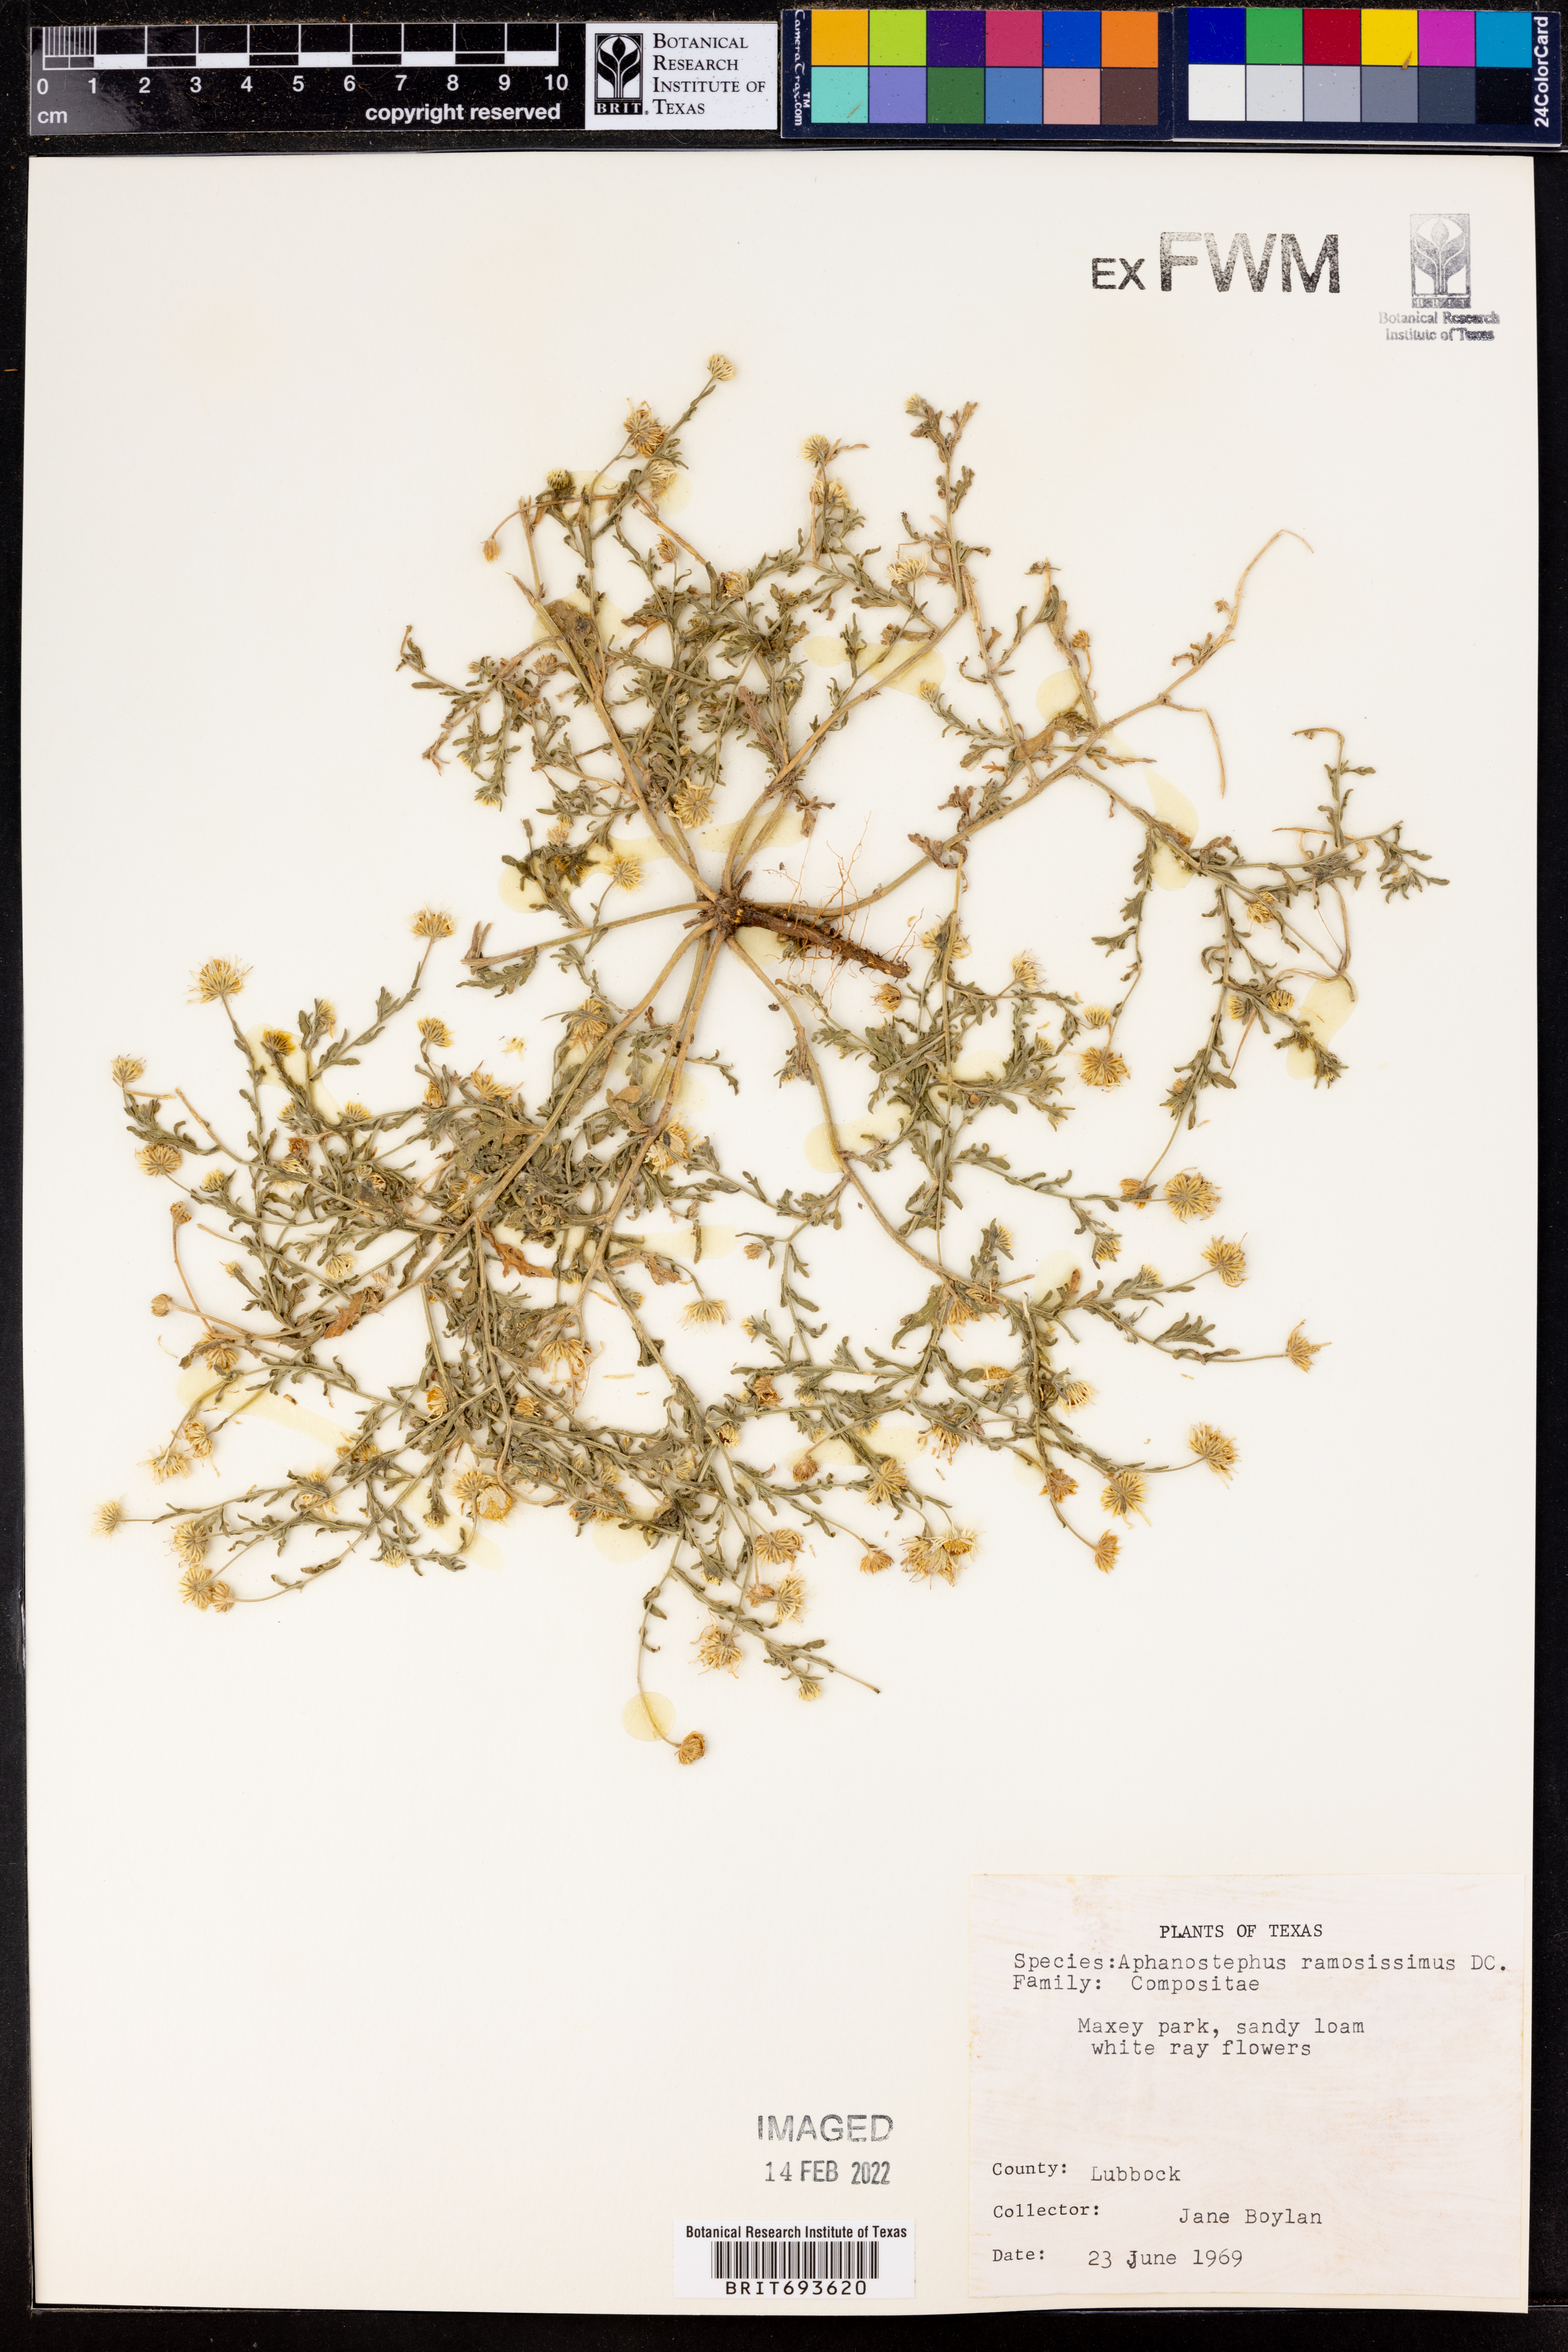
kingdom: Plantae
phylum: Tracheophyta
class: Magnoliopsida
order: Asterales
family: Asteraceae
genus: Aphanostephus
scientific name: Aphanostephus ramosissimus
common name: Plains lazy daisy
